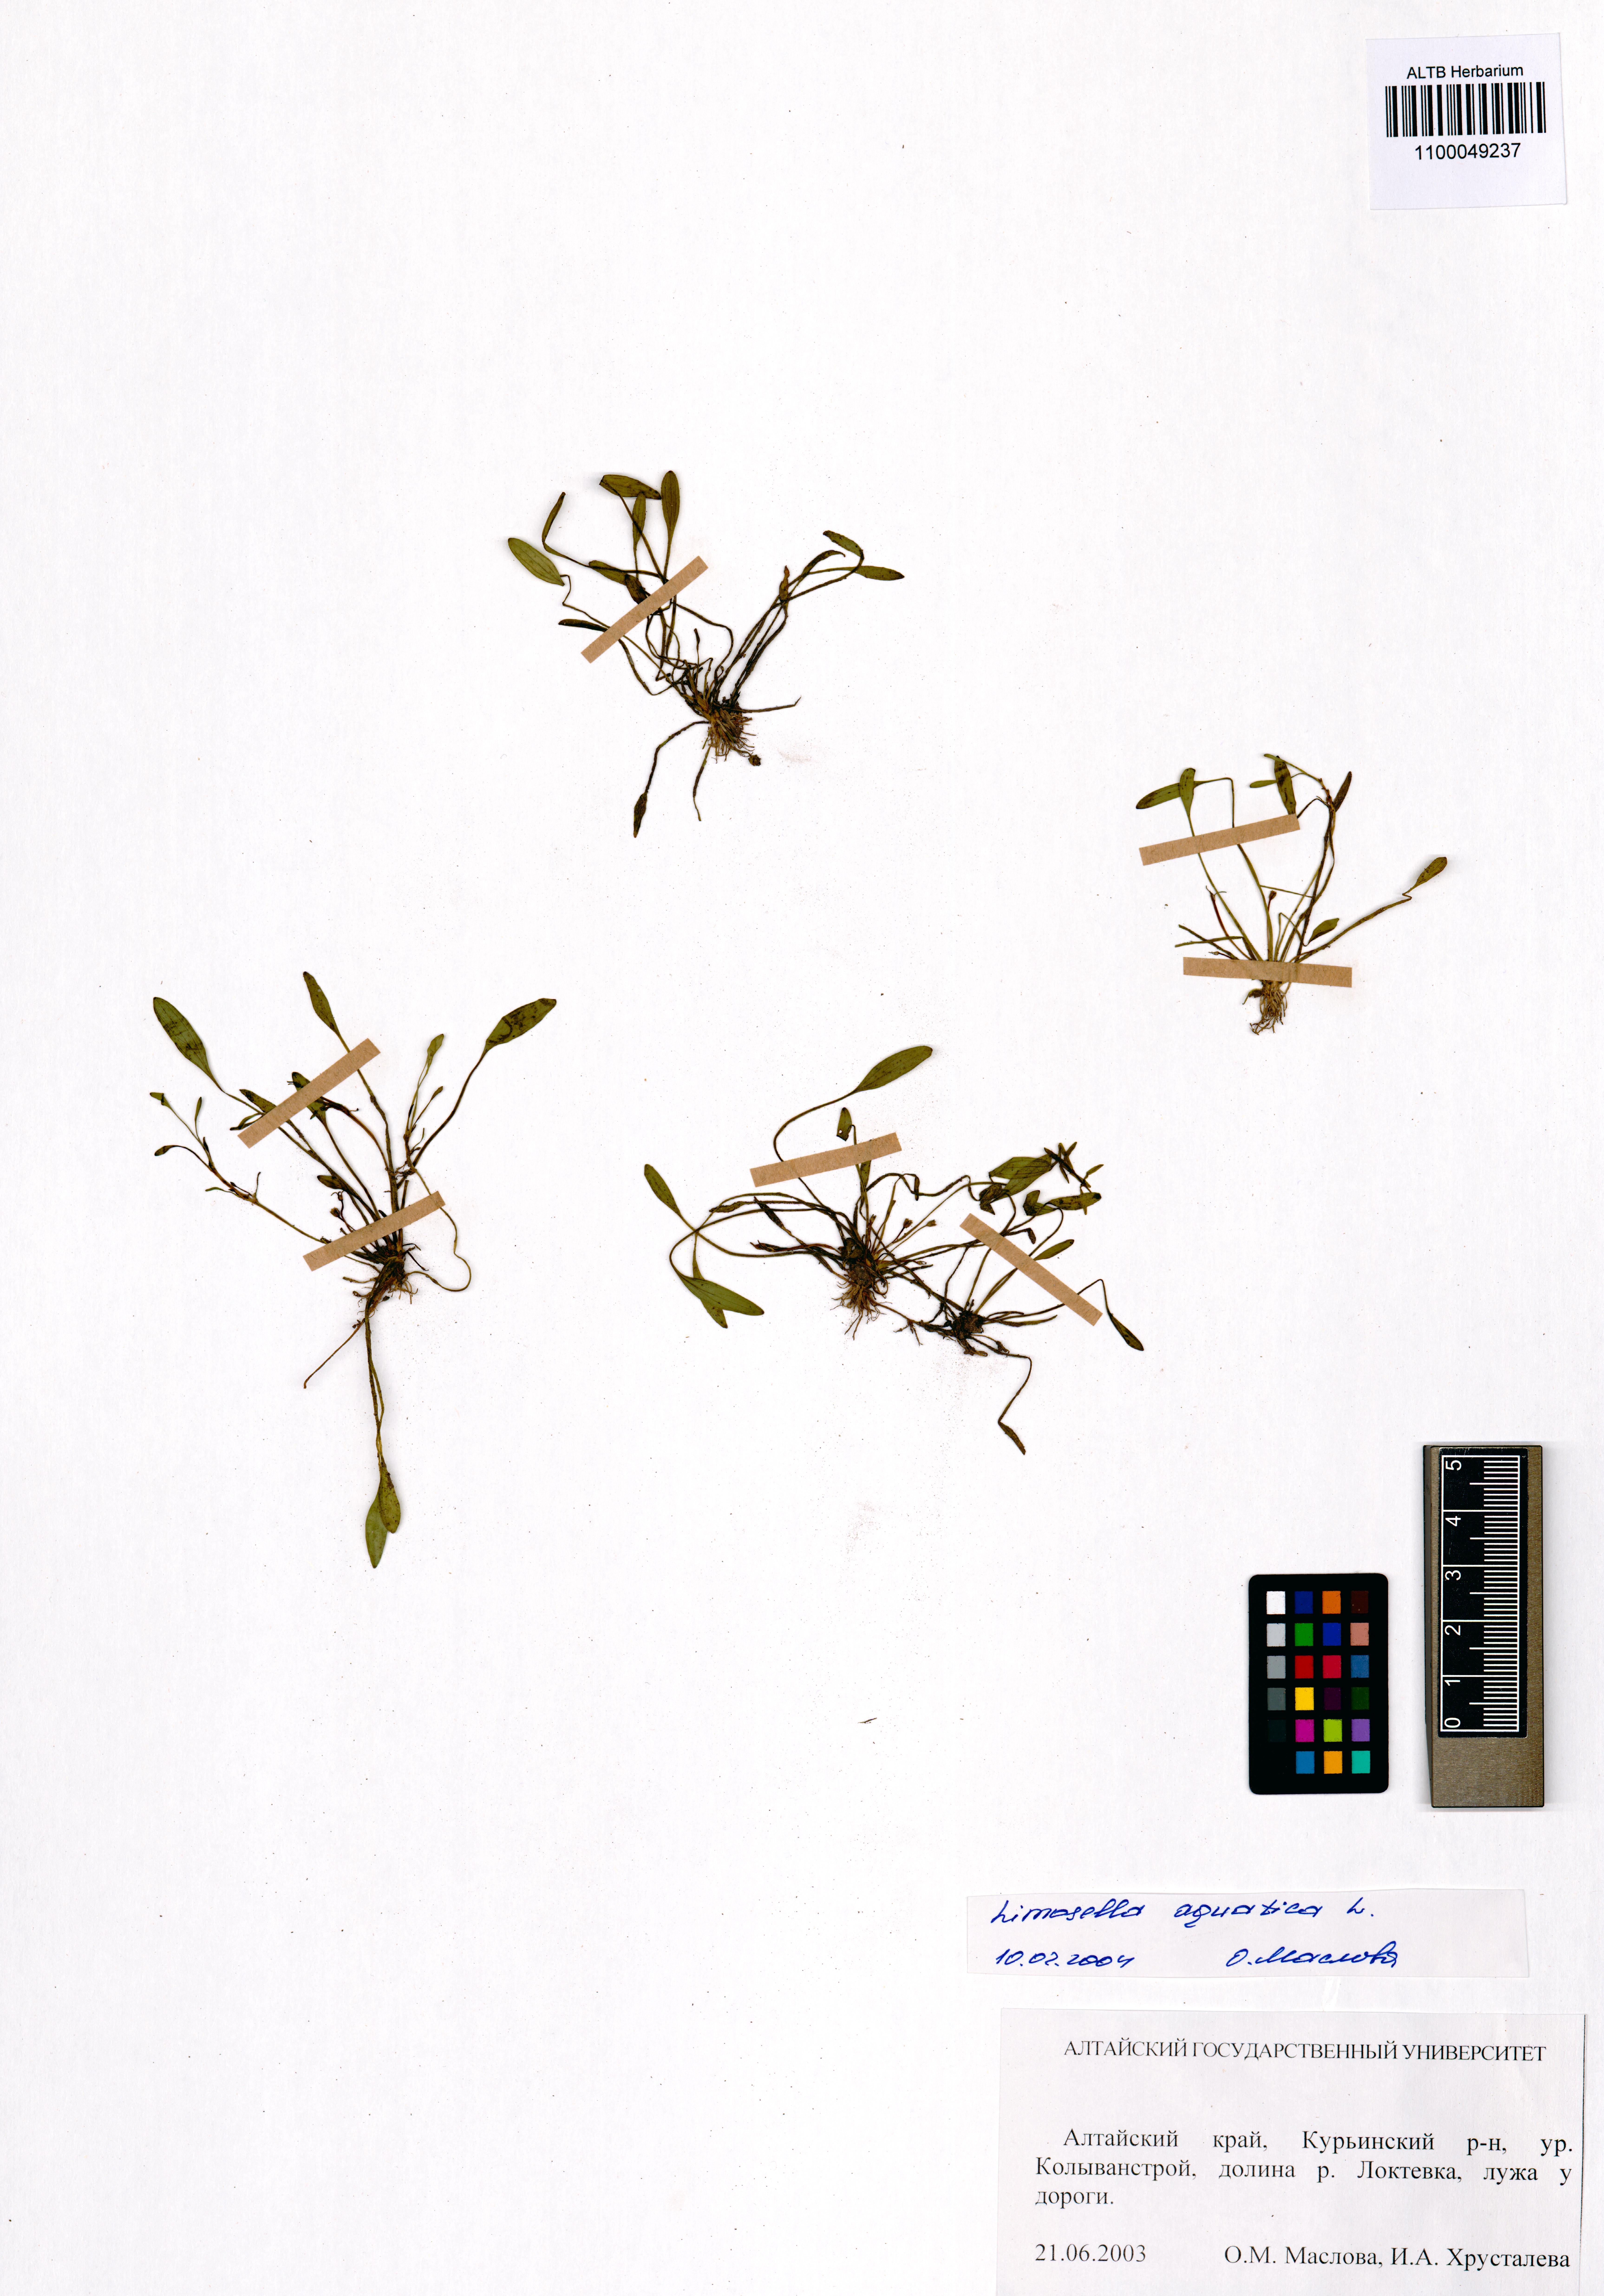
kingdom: Plantae
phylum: Tracheophyta
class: Magnoliopsida
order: Lamiales
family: Scrophulariaceae
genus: Limosella
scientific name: Limosella aquatica
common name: Mudwort
